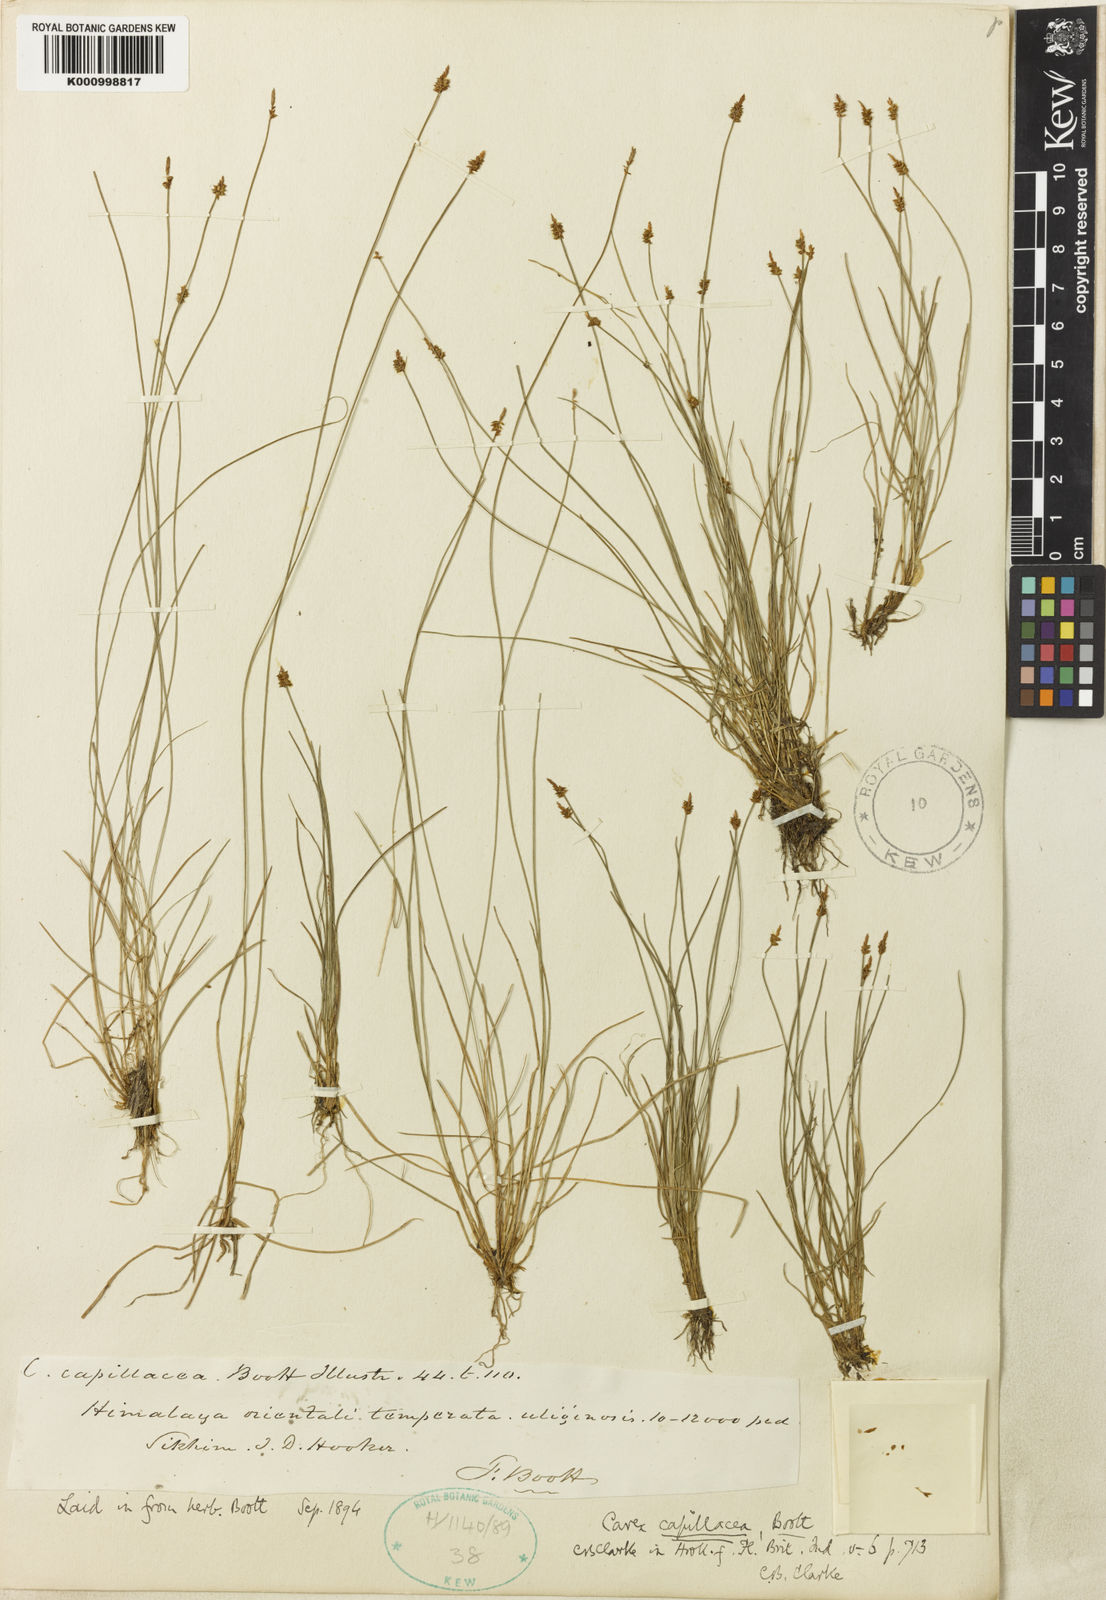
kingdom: Plantae
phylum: Tracheophyta
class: Liliopsida
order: Poales
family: Cyperaceae
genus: Carex
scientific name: Carex
